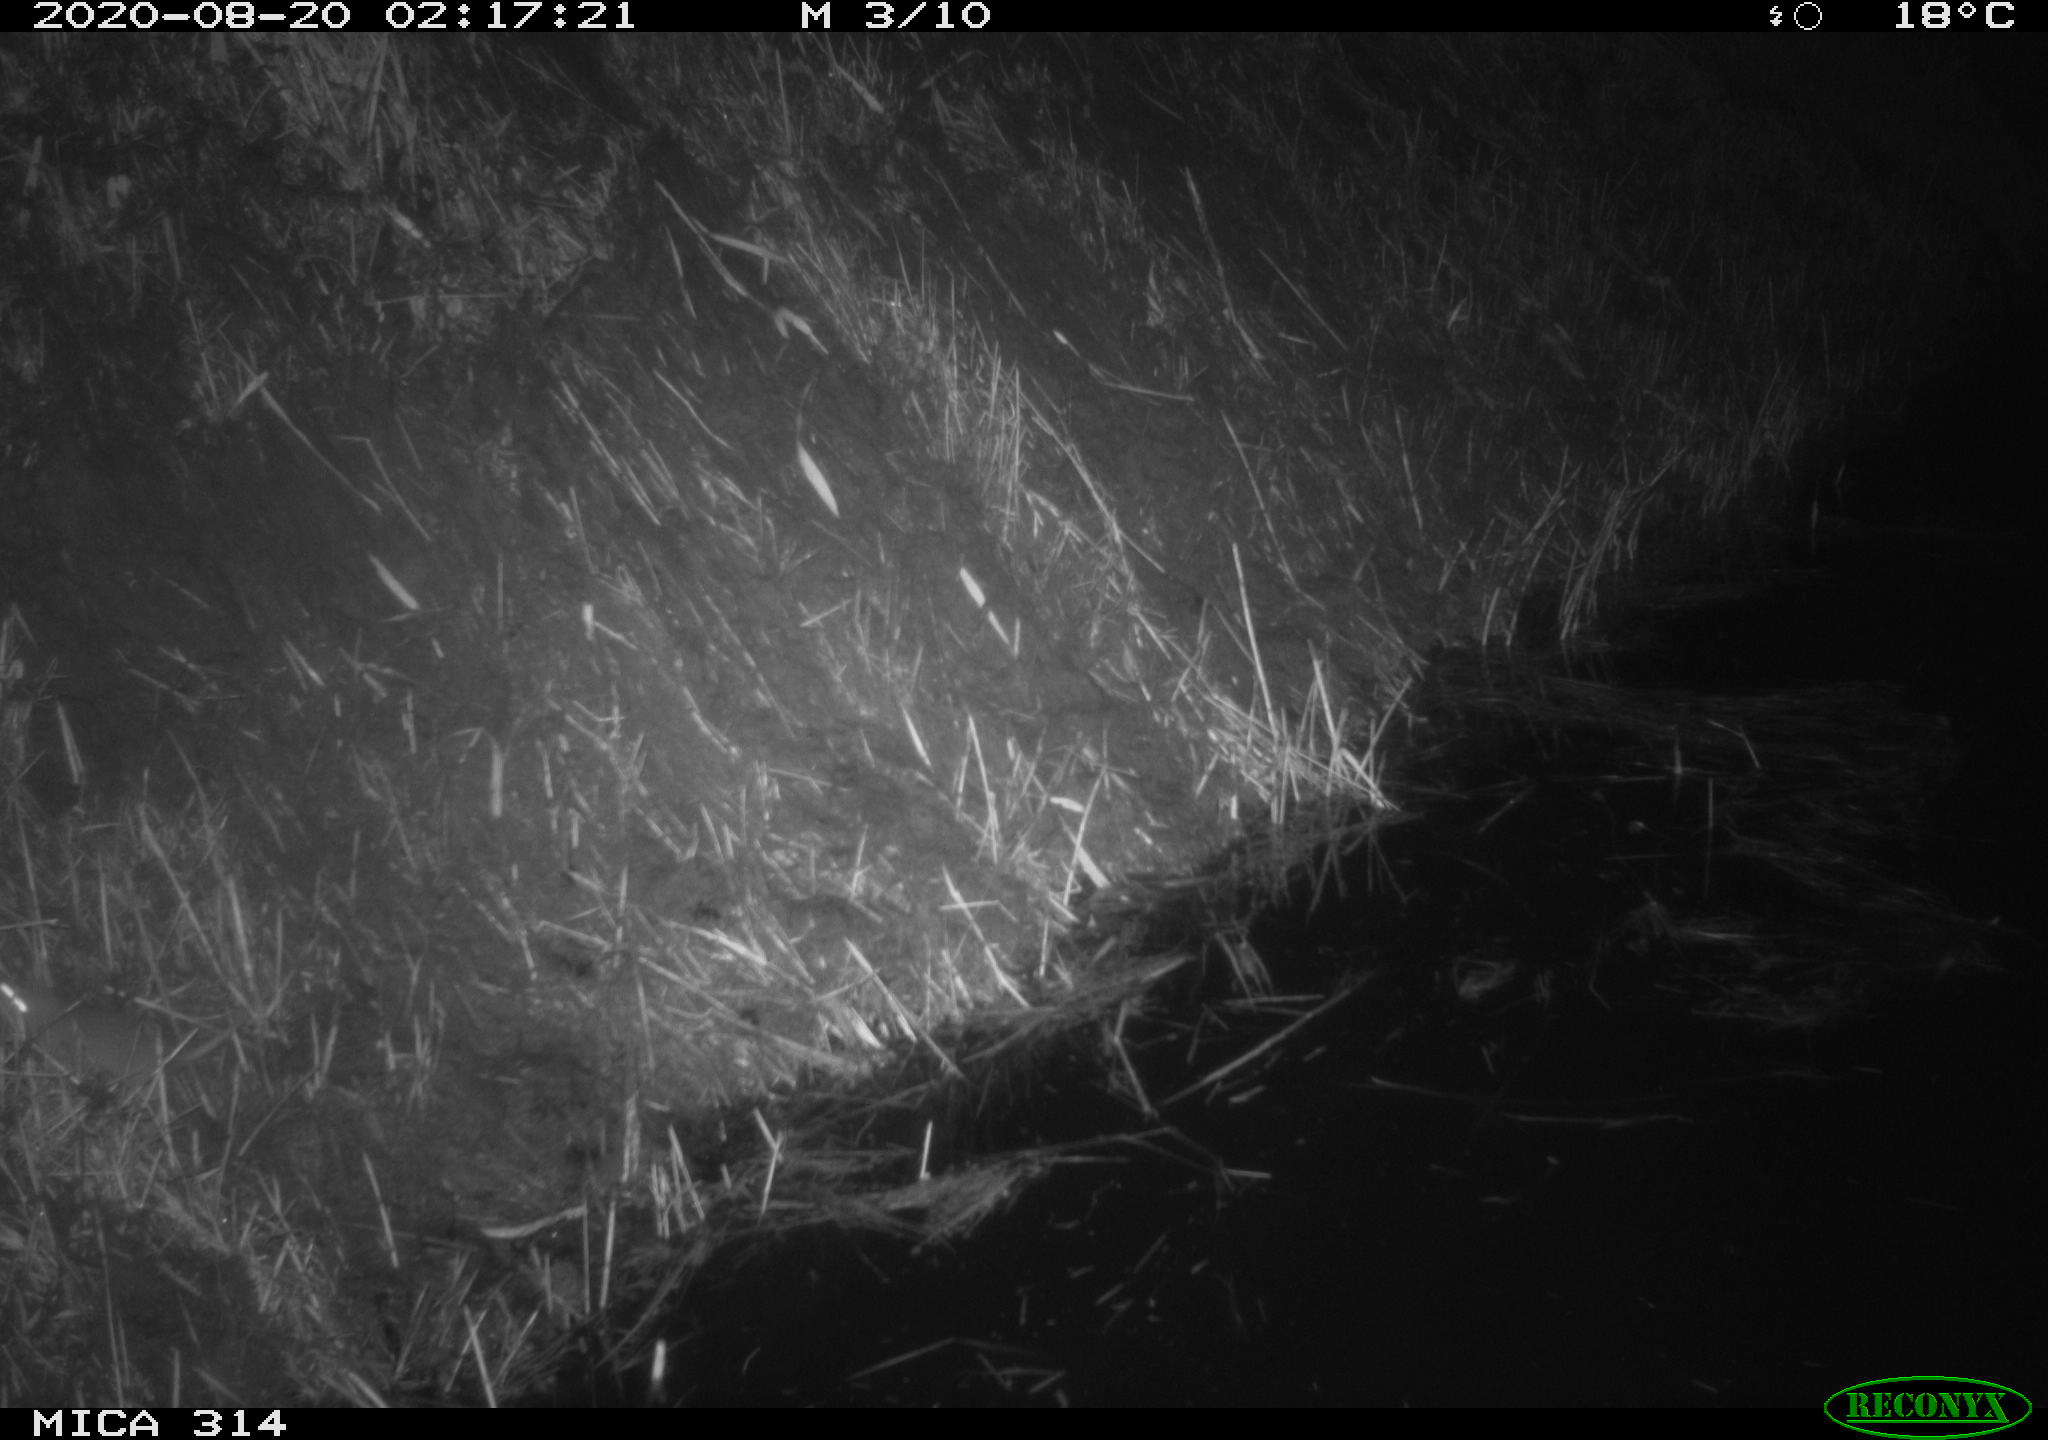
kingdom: Animalia
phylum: Chordata
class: Mammalia
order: Rodentia
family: Muridae
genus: Rattus
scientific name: Rattus norvegicus
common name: Brown rat
